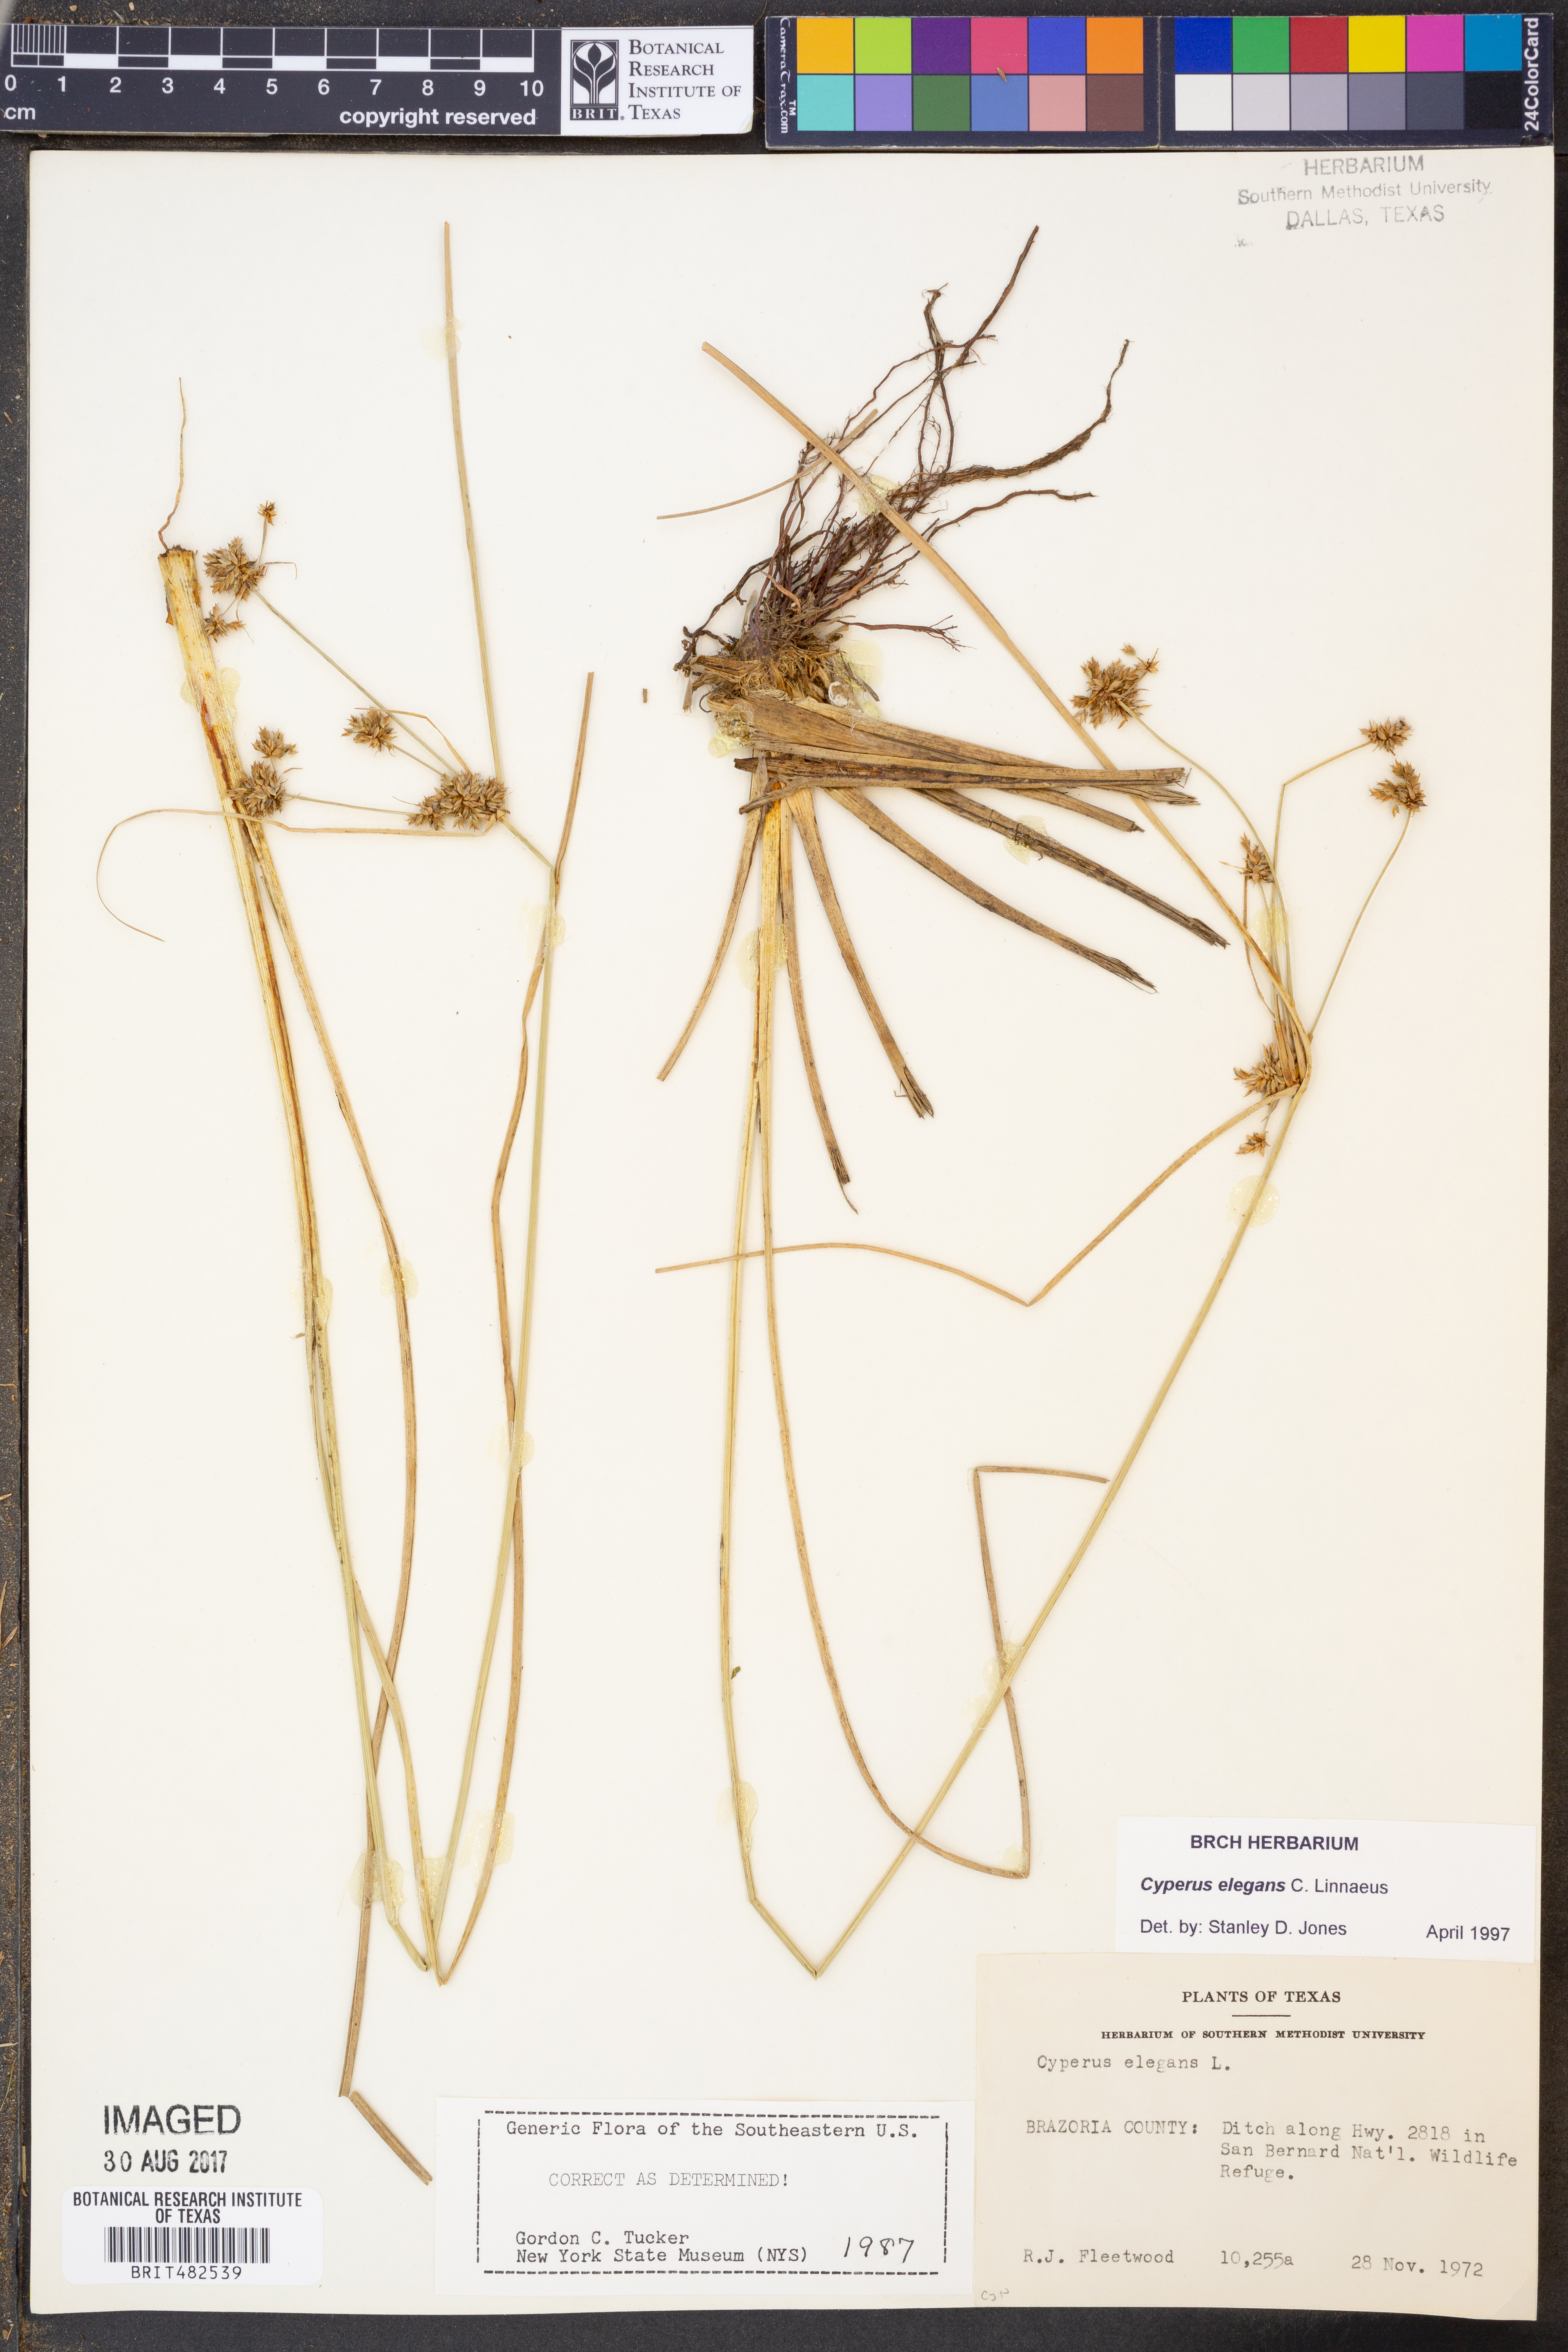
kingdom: Plantae
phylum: Tracheophyta
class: Liliopsida
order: Poales
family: Cyperaceae
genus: Cyperus
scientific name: Cyperus elegans
